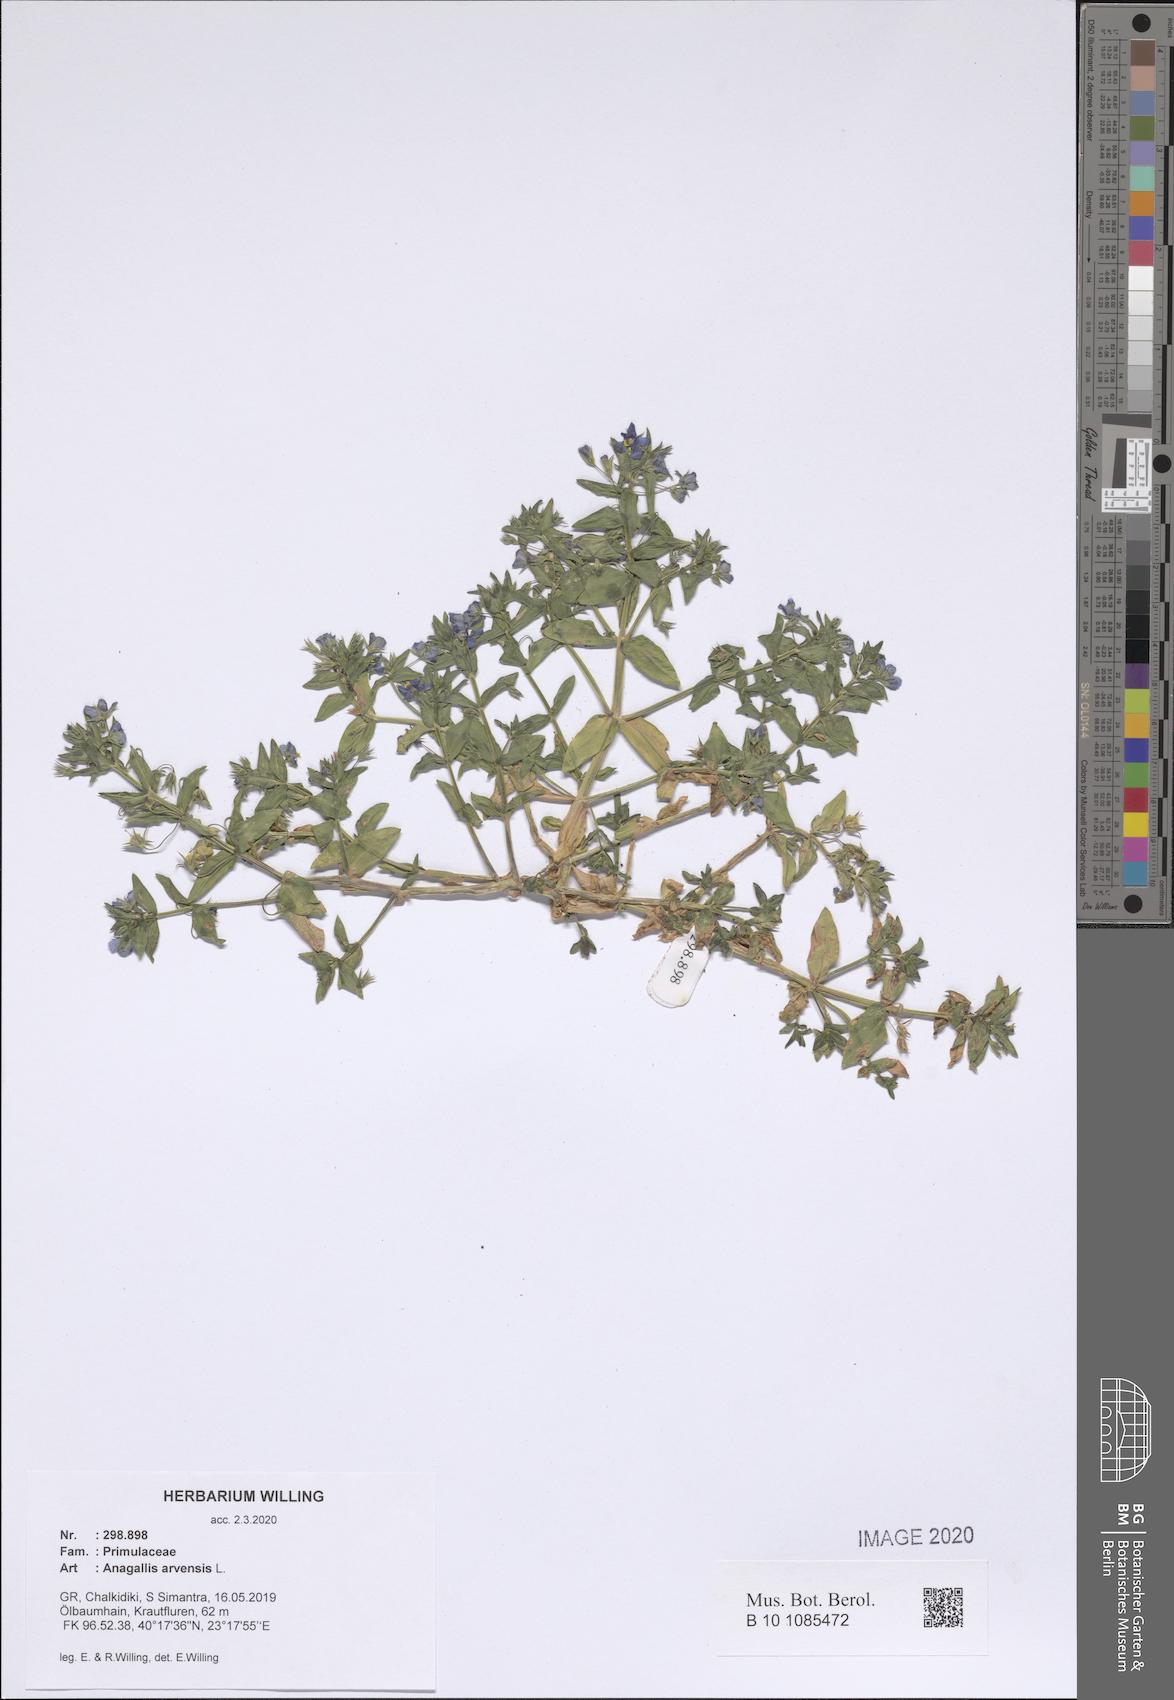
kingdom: Plantae
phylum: Tracheophyta
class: Magnoliopsida
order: Ericales
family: Primulaceae
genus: Lysimachia
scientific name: Lysimachia arvensis
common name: Scarlet pimpernel
